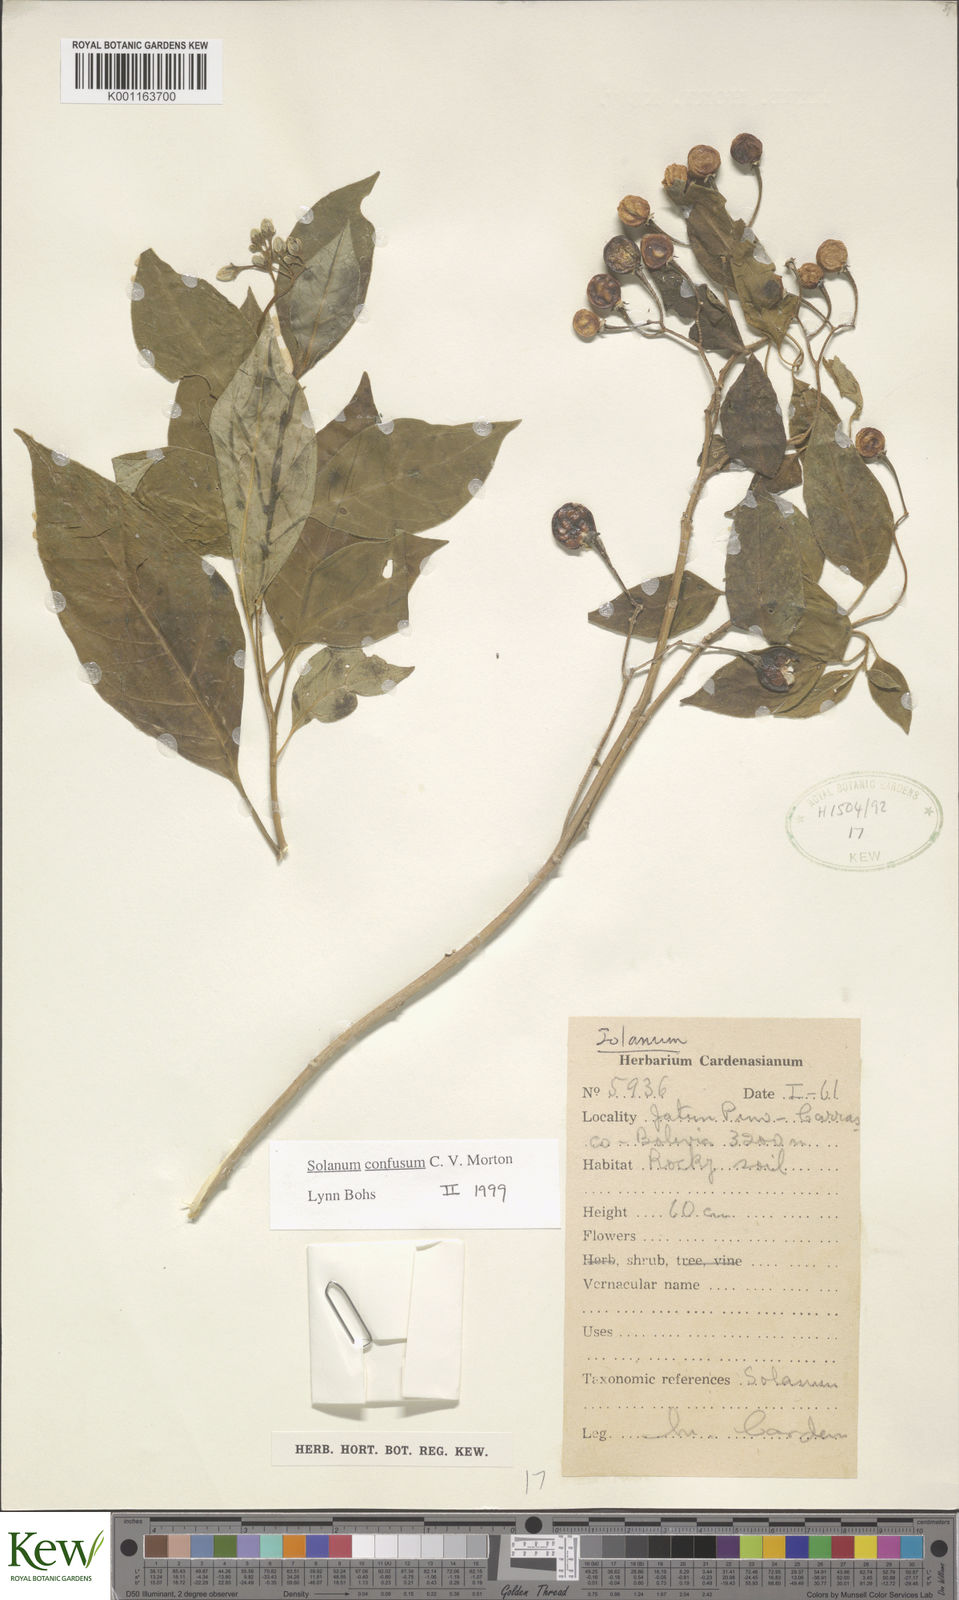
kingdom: Plantae
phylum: Tracheophyta
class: Magnoliopsida
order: Solanales
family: Solanaceae
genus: Solanum
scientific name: Solanum confusum
